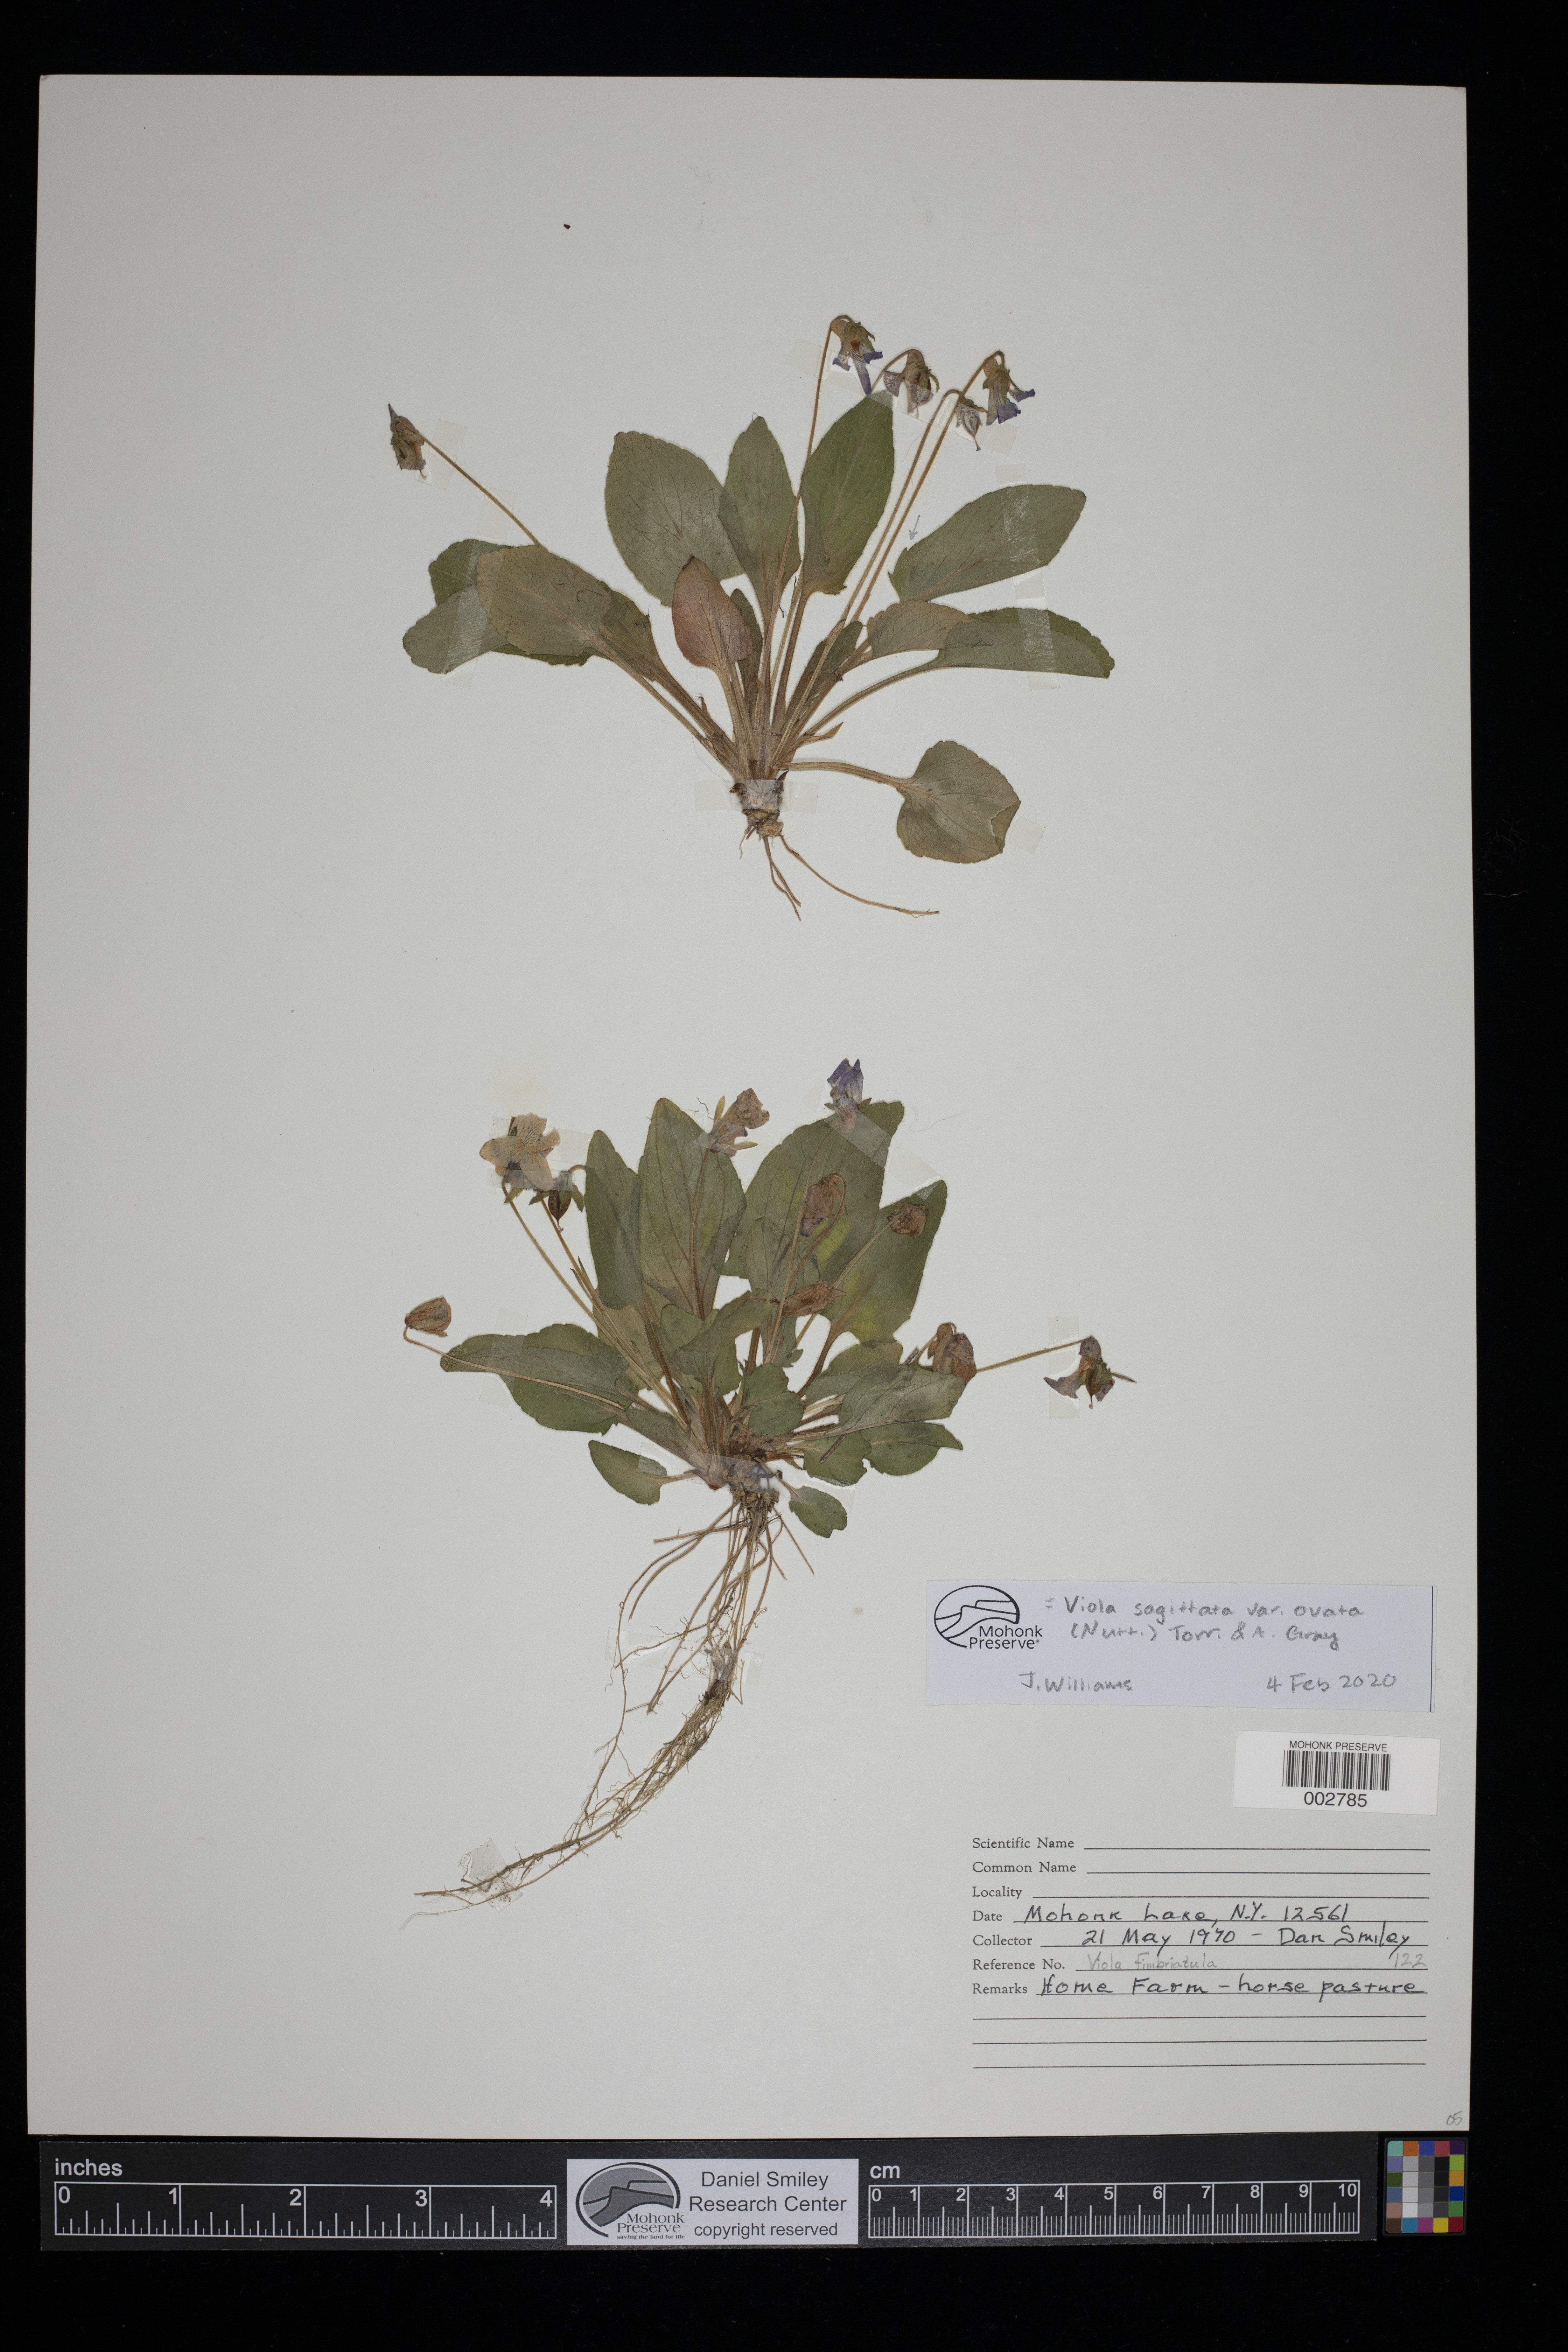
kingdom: Plantae
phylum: Tracheophyta
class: Magnoliopsida
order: Malpighiales
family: Violaceae
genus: Viola
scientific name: Viola fimbriatula
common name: Sand violet
